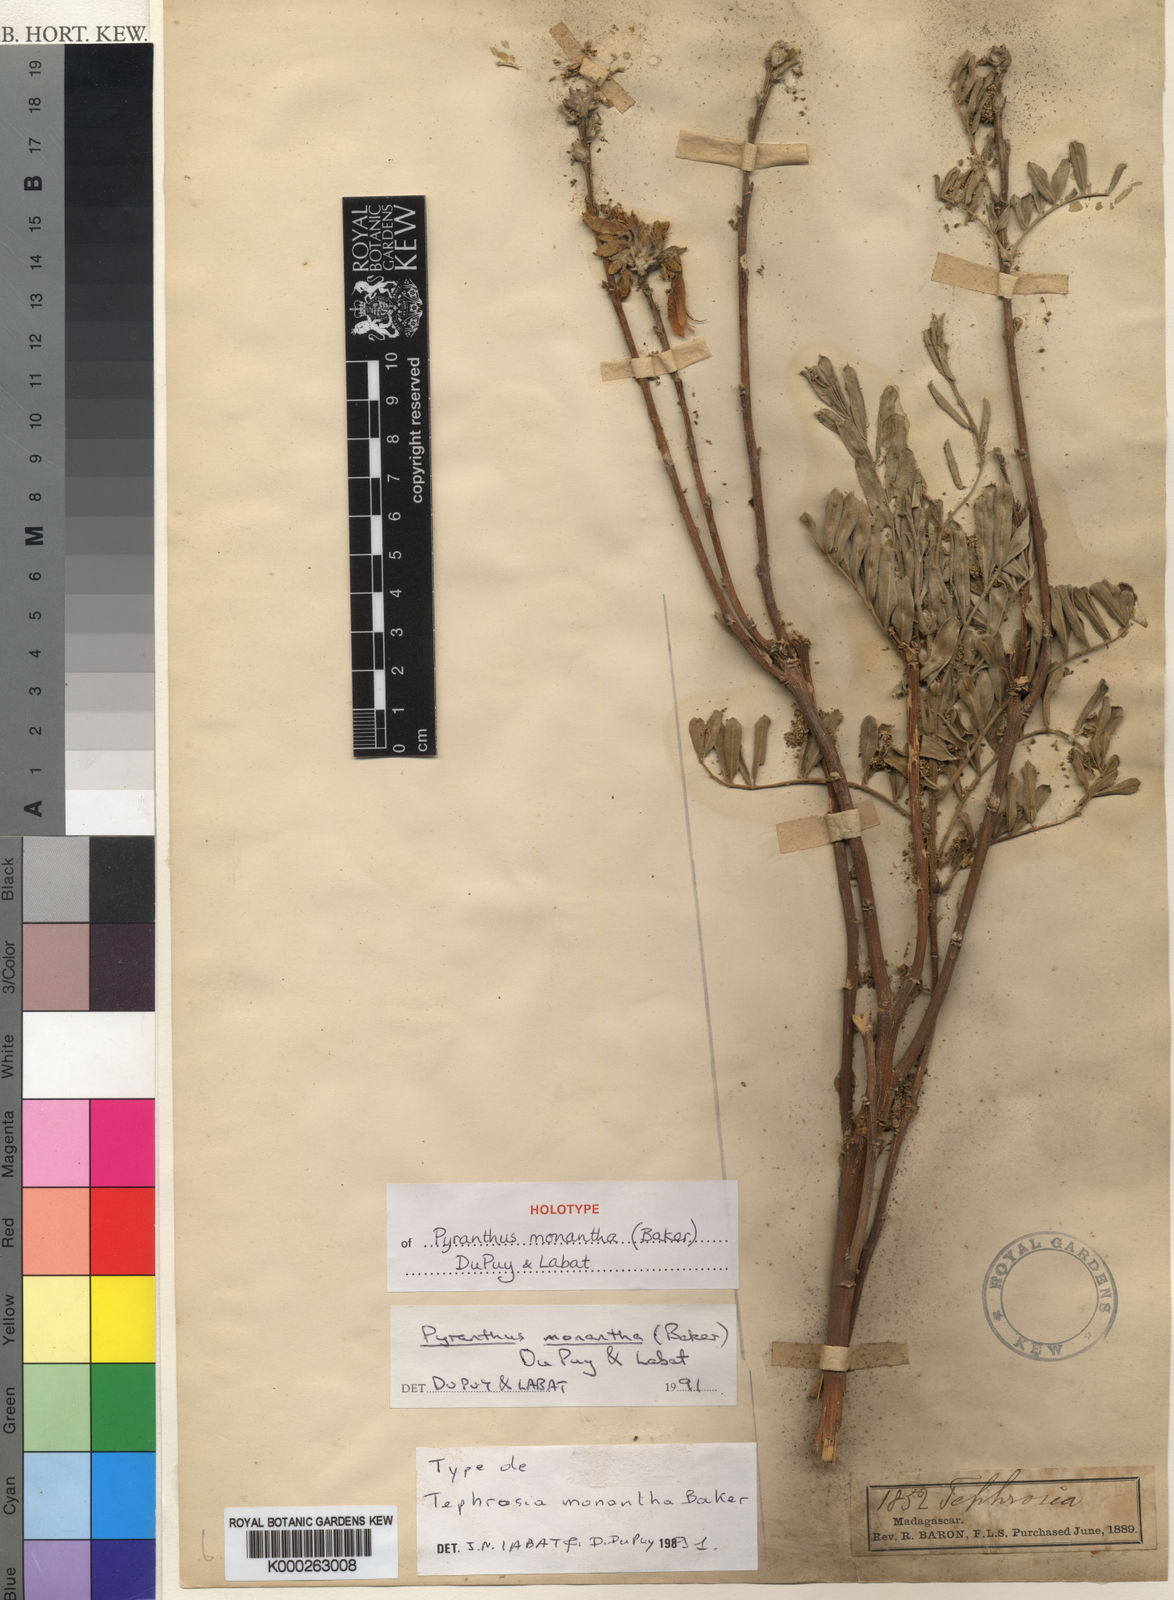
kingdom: Plantae
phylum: Tracheophyta
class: Magnoliopsida
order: Fabales
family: Fabaceae
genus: Pyranthus
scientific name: Pyranthus monanthus
